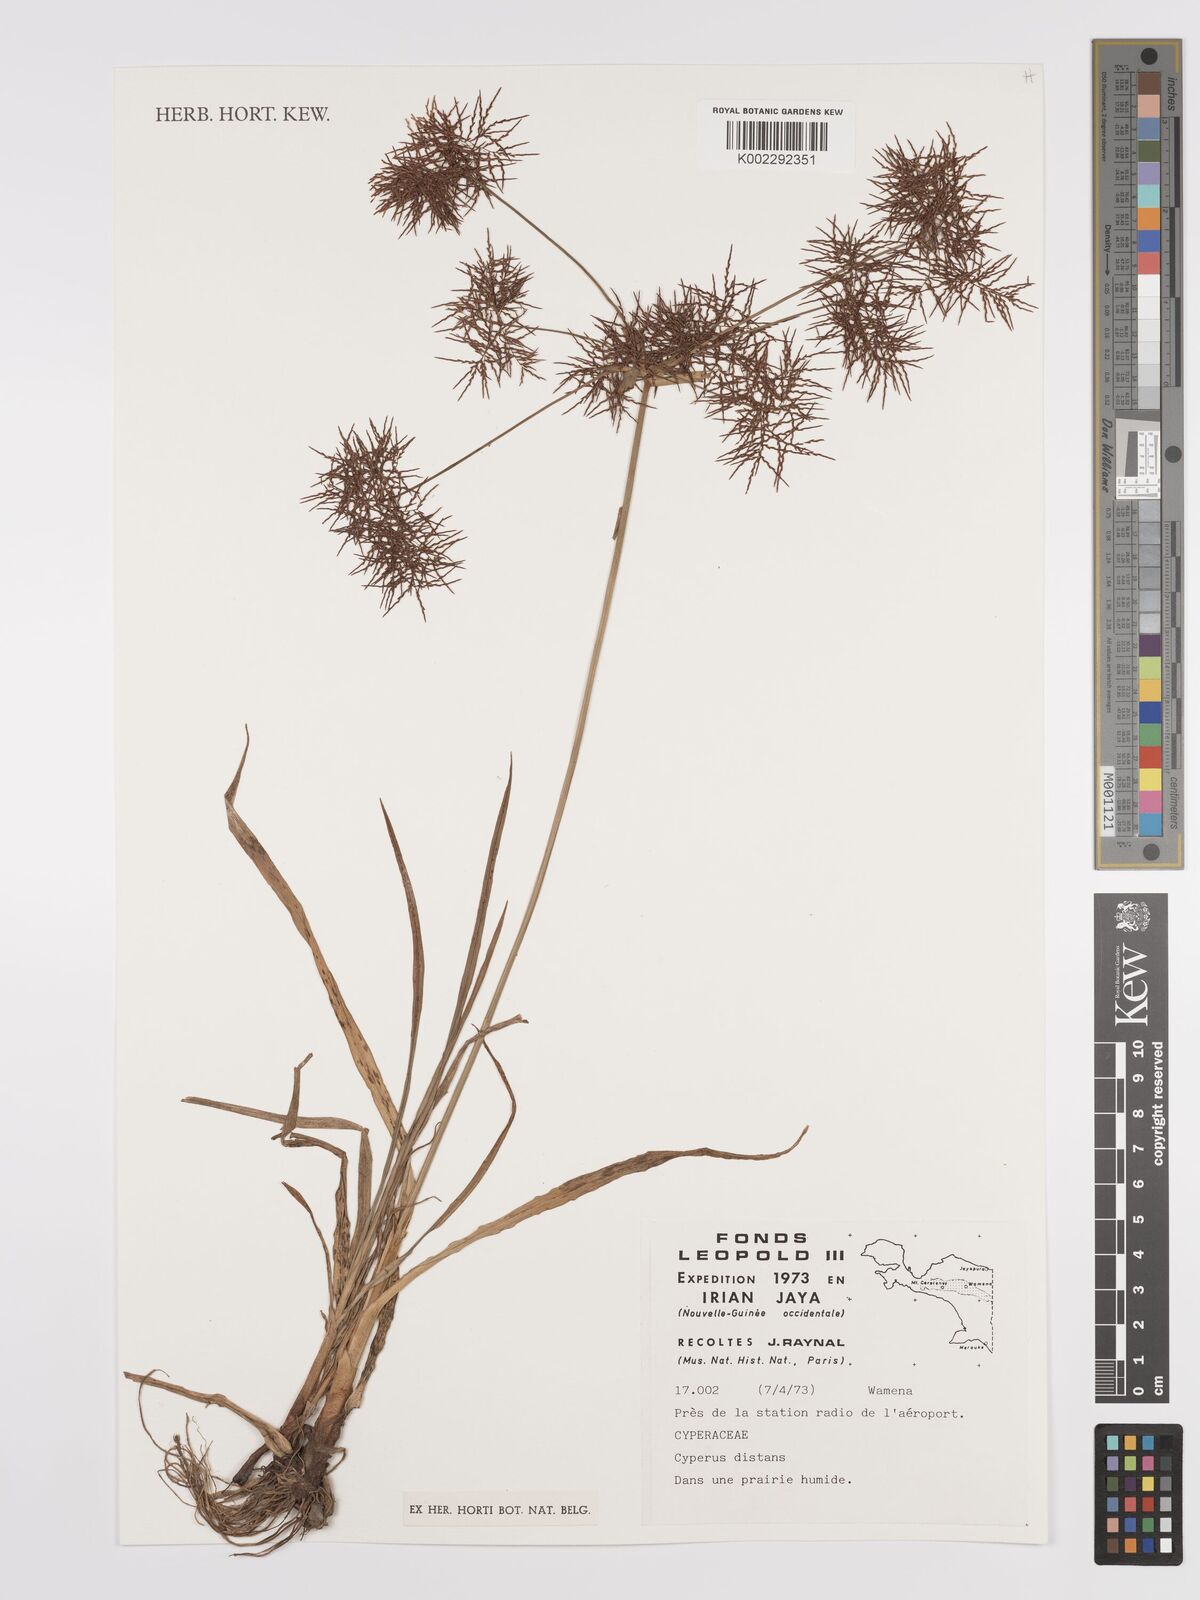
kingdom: Plantae
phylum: Tracheophyta
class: Liliopsida
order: Poales
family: Cyperaceae
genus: Cyperus
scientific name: Cyperus distans
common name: Slender cyperus
